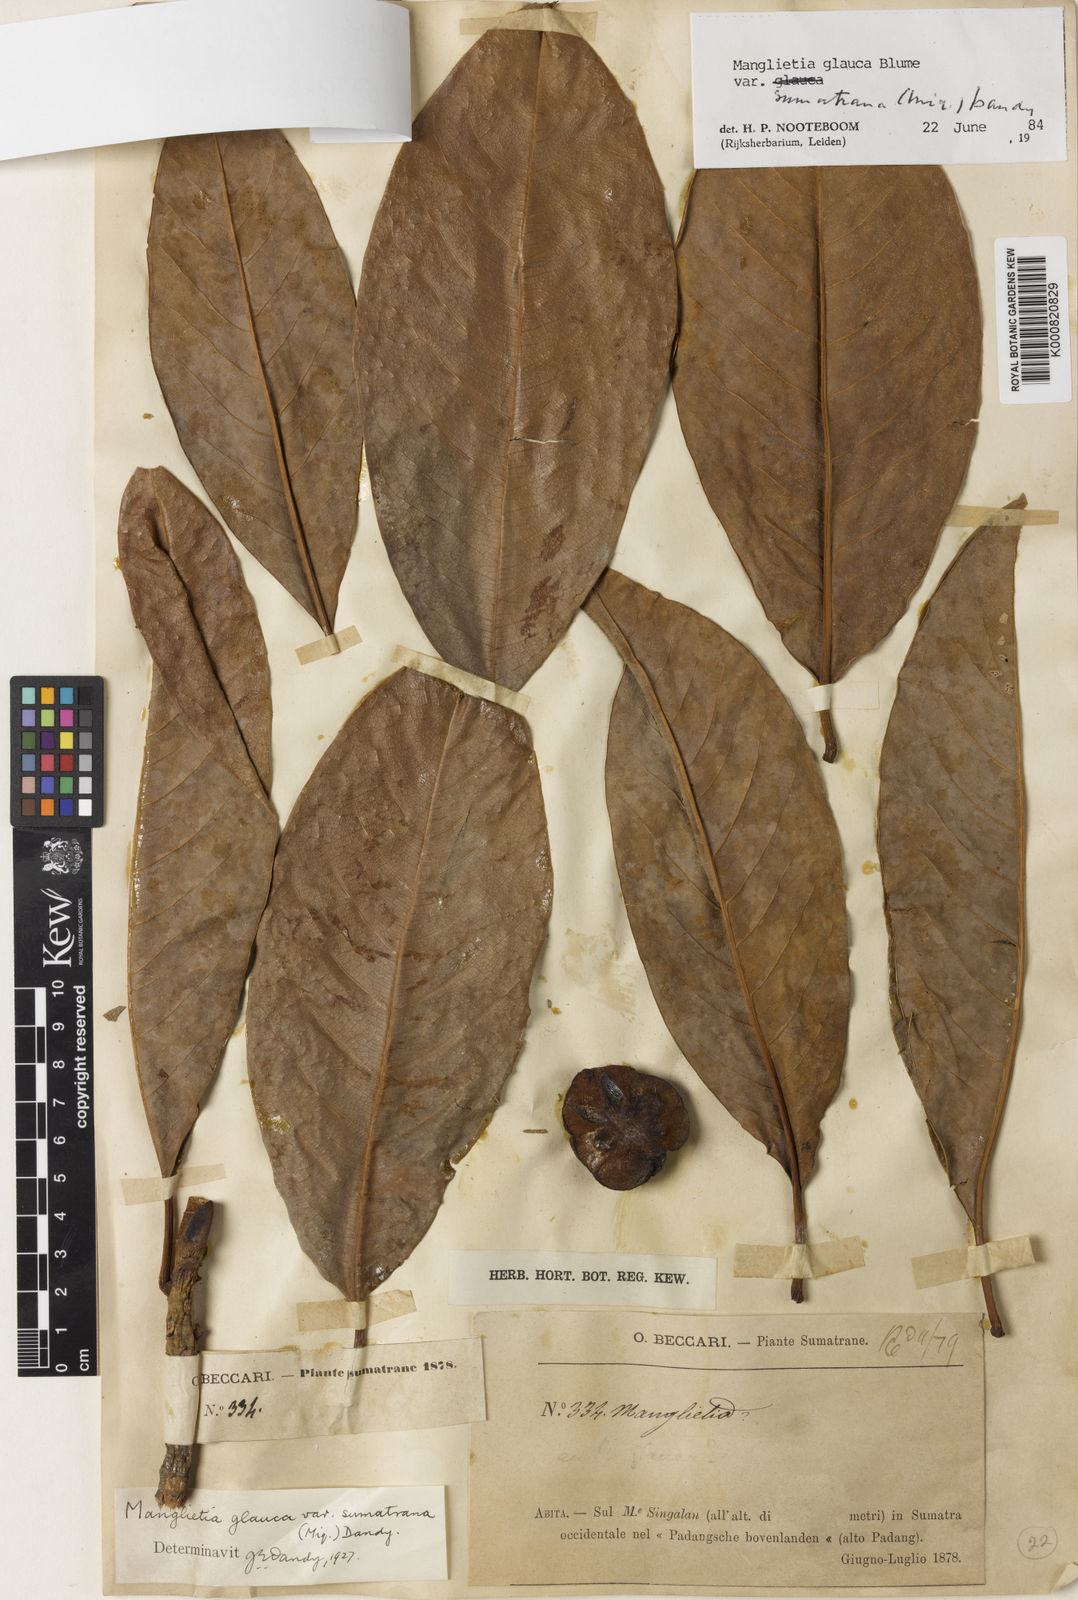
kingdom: Plantae
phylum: Tracheophyta
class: Magnoliopsida
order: Magnoliales
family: Magnoliaceae
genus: Magnolia
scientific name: Magnolia sumatrana
